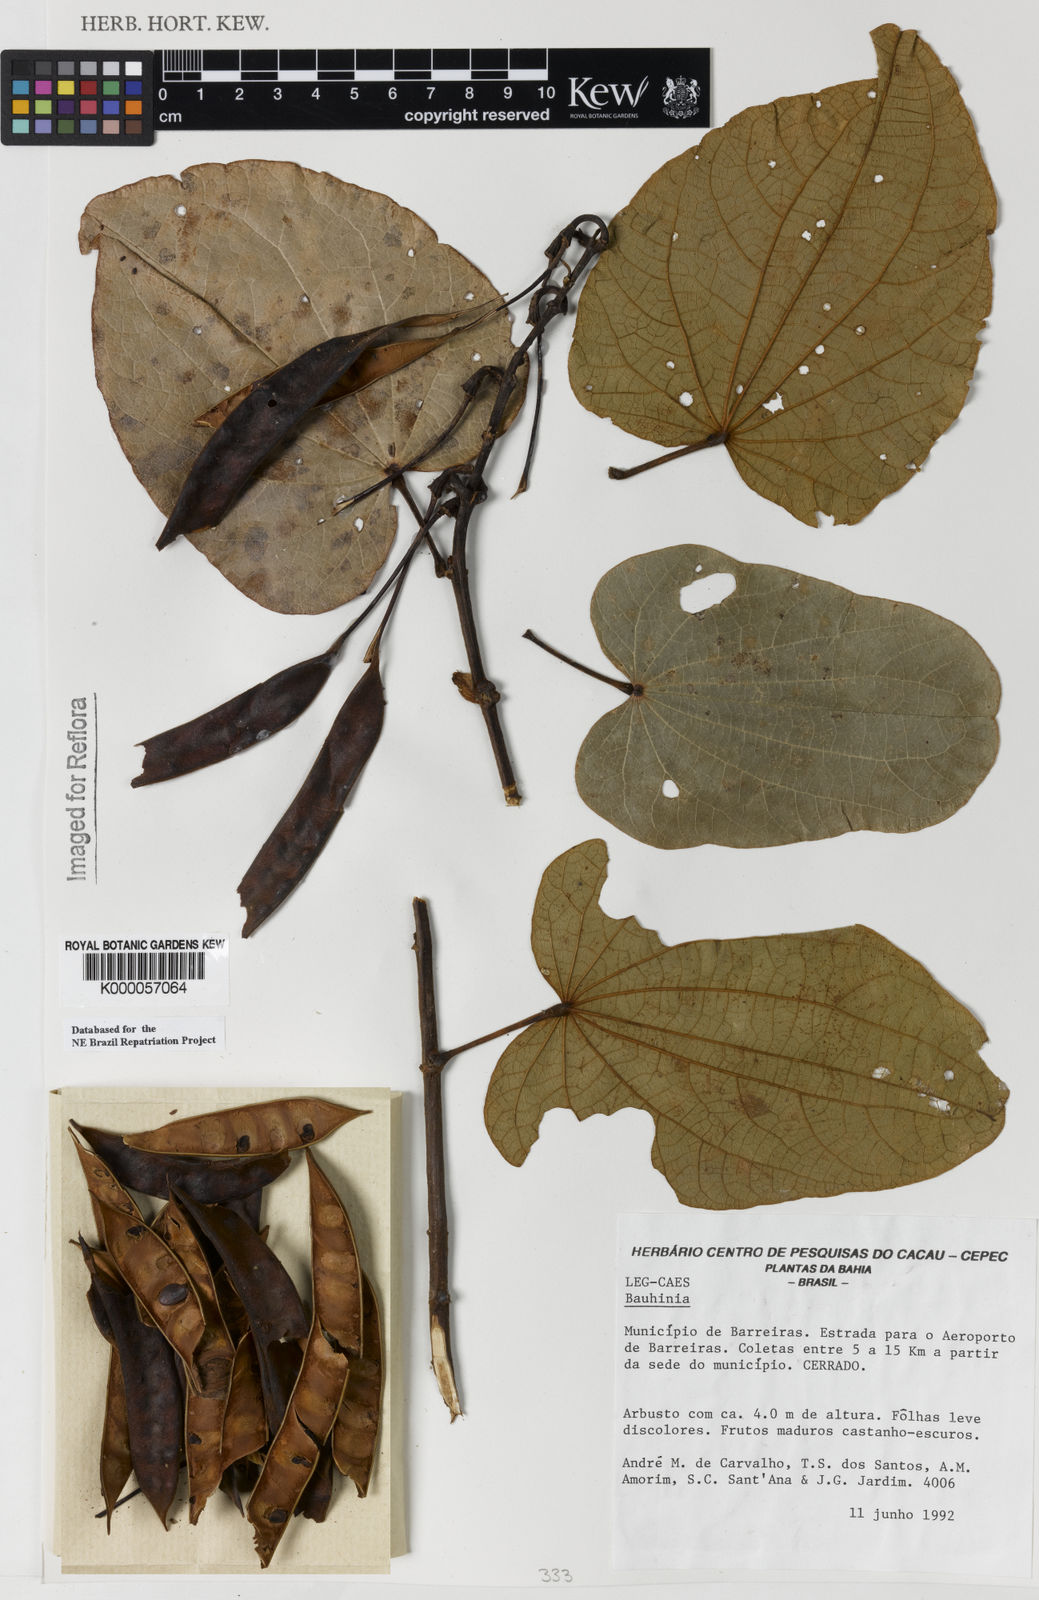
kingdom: Plantae
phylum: Tracheophyta
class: Magnoliopsida
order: Fabales
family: Fabaceae
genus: Bauhinia
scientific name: Bauhinia
